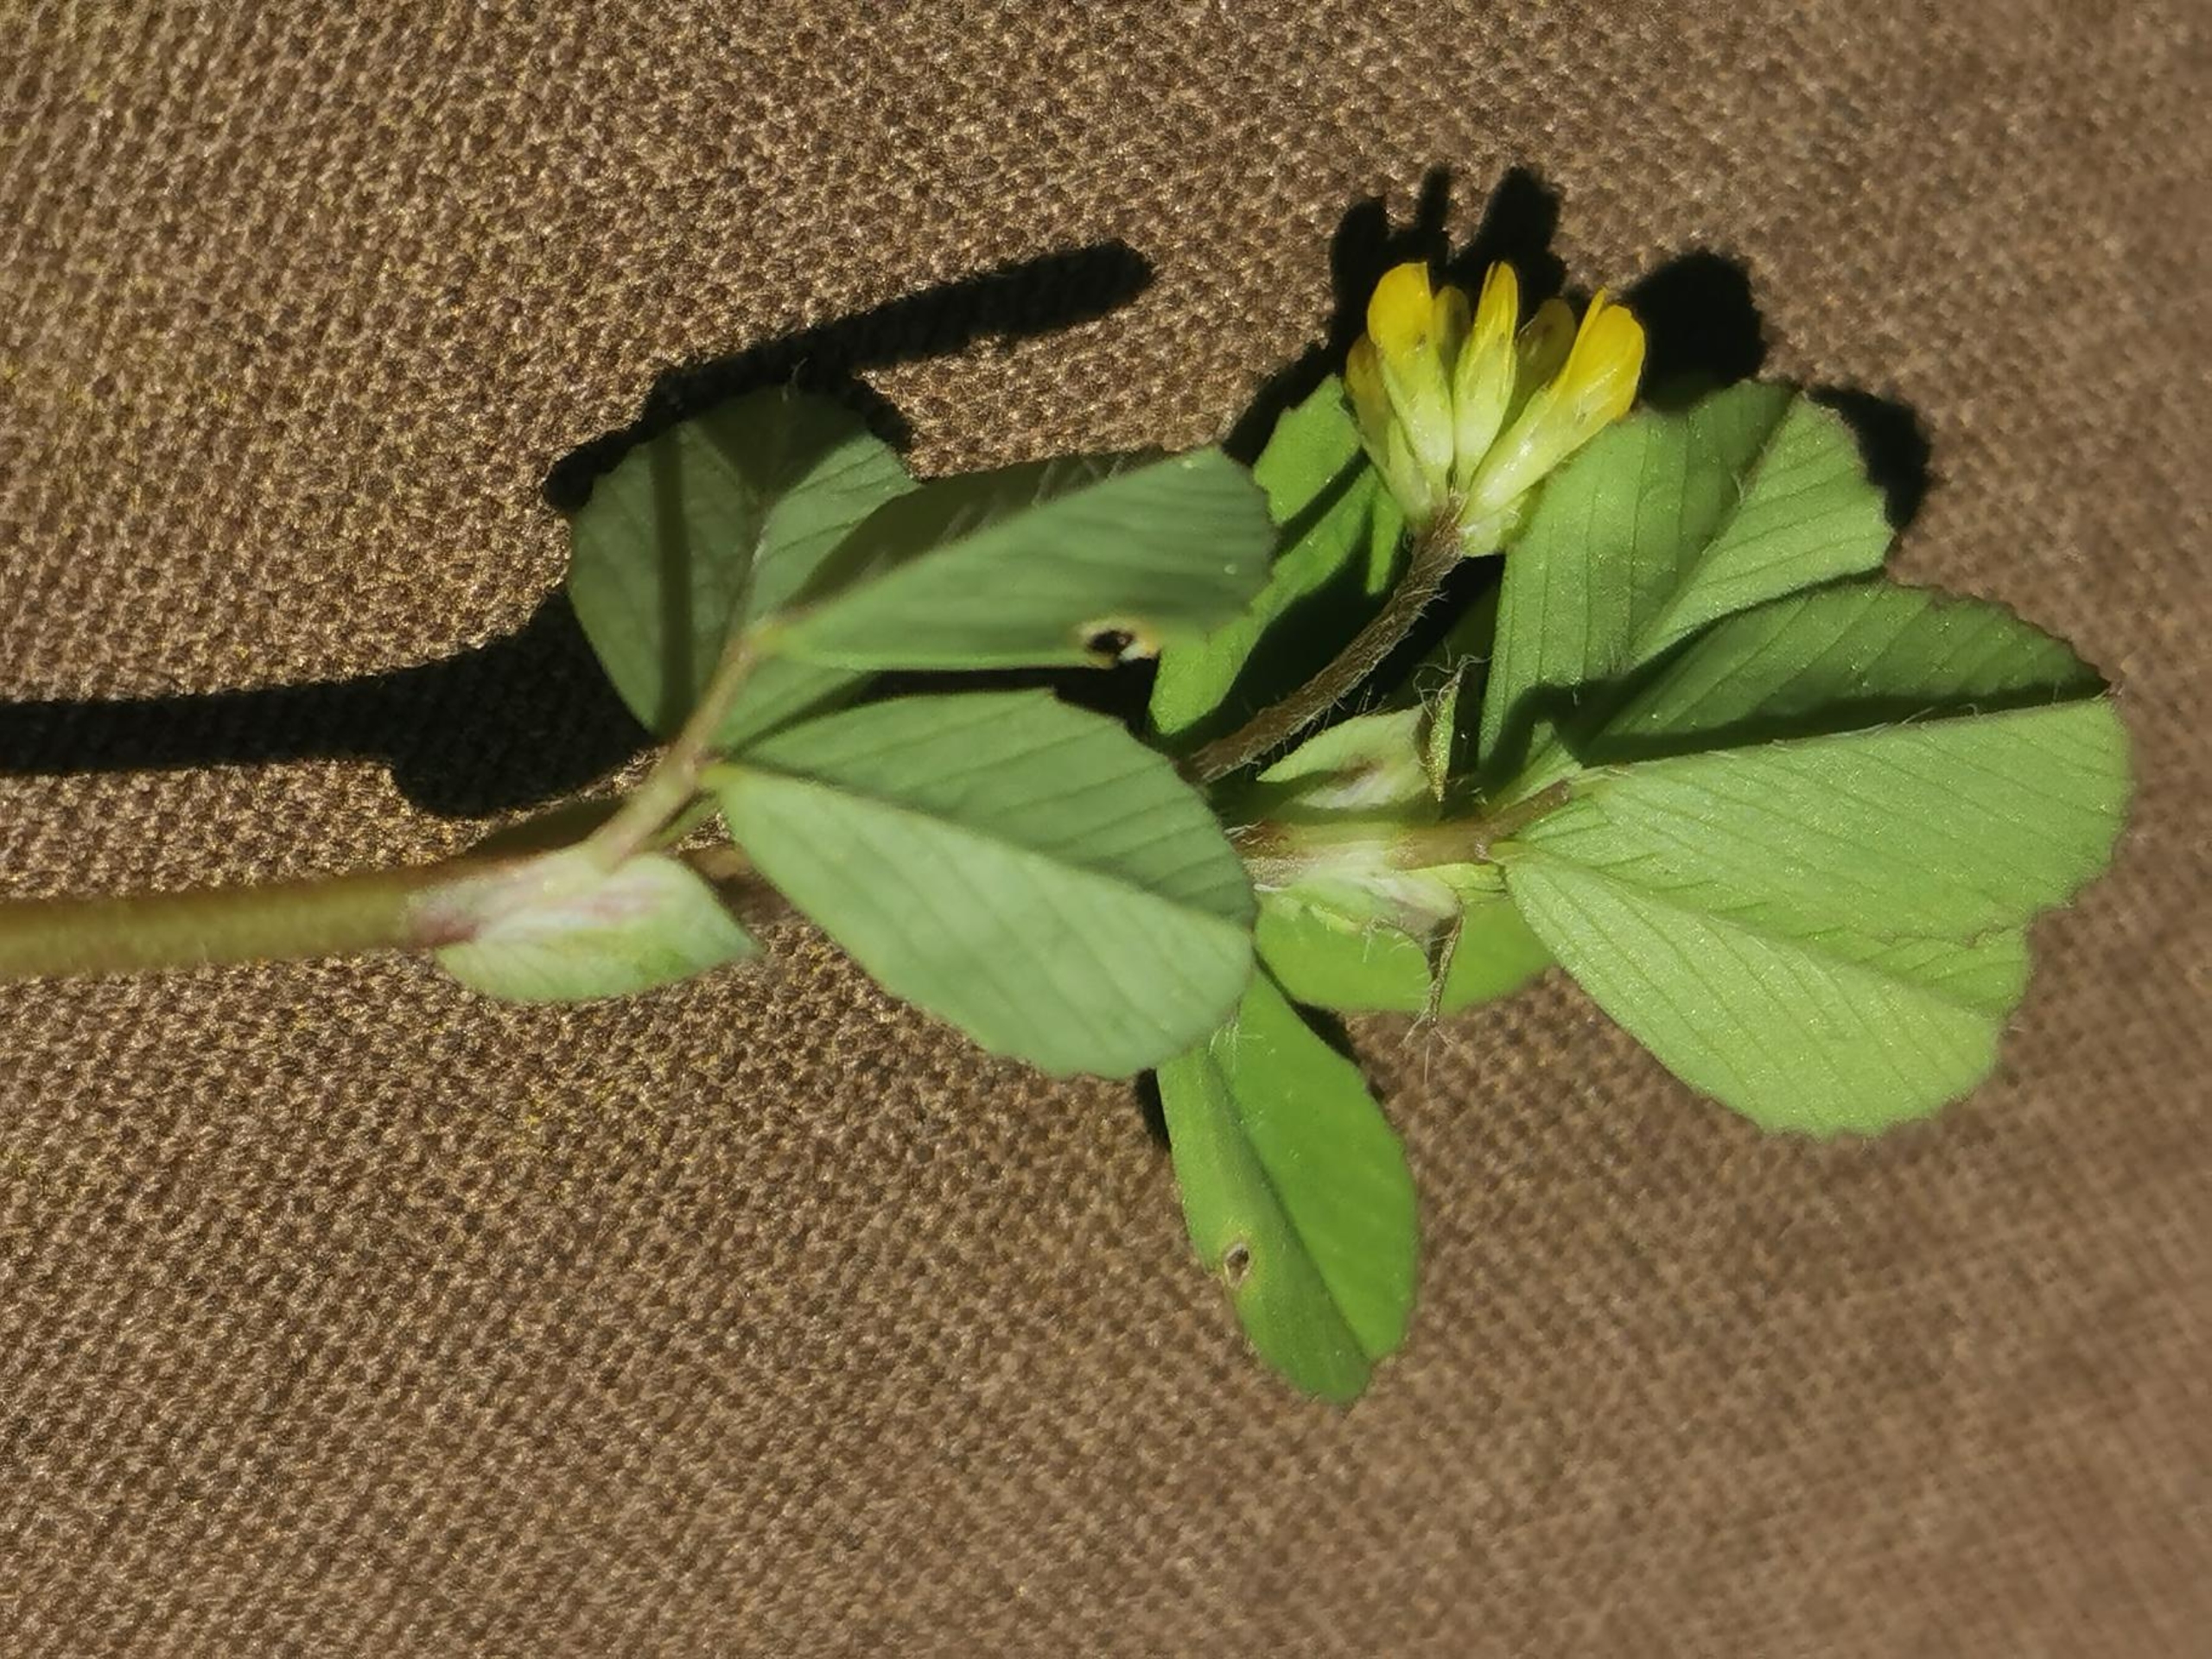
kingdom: Plantae
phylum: Tracheophyta
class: Magnoliopsida
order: Fabales
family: Fabaceae
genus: Trifolium
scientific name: Trifolium dubium
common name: Fin kløver
